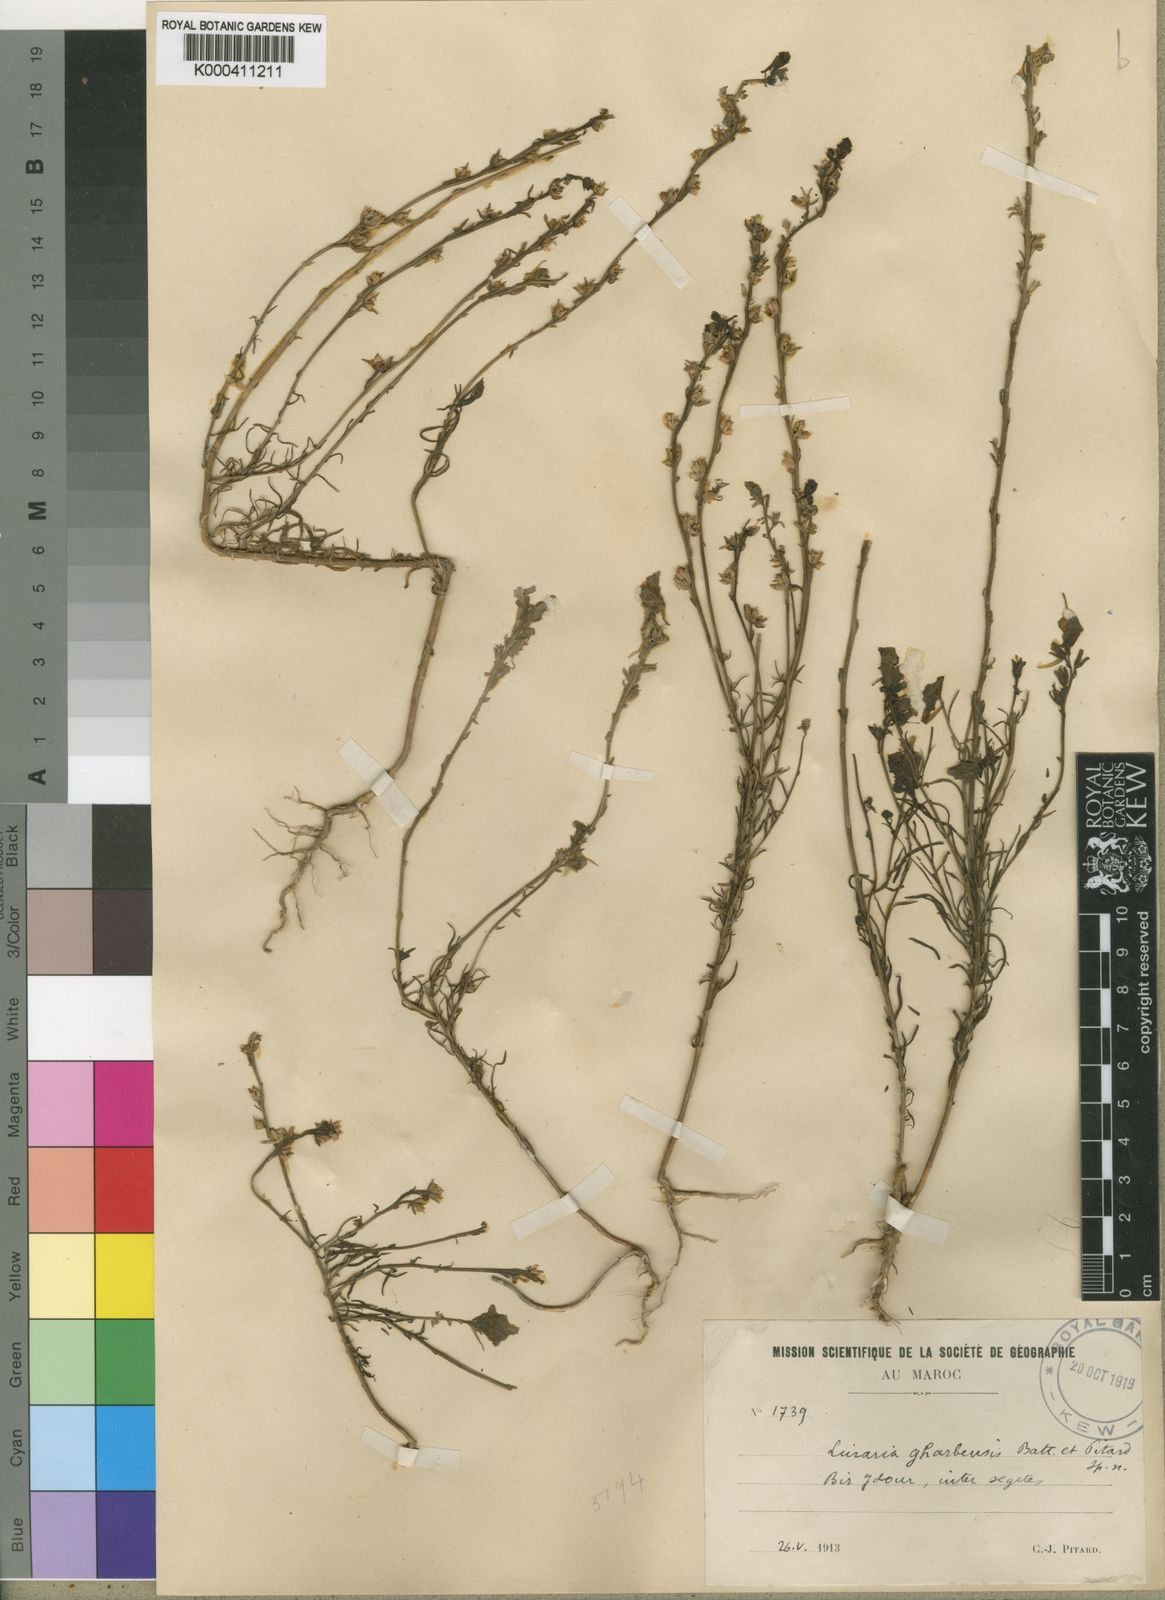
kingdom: Plantae
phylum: Tracheophyta
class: Magnoliopsida
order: Lamiales
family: Plantaginaceae
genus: Linaria
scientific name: Linaria gharbensis
